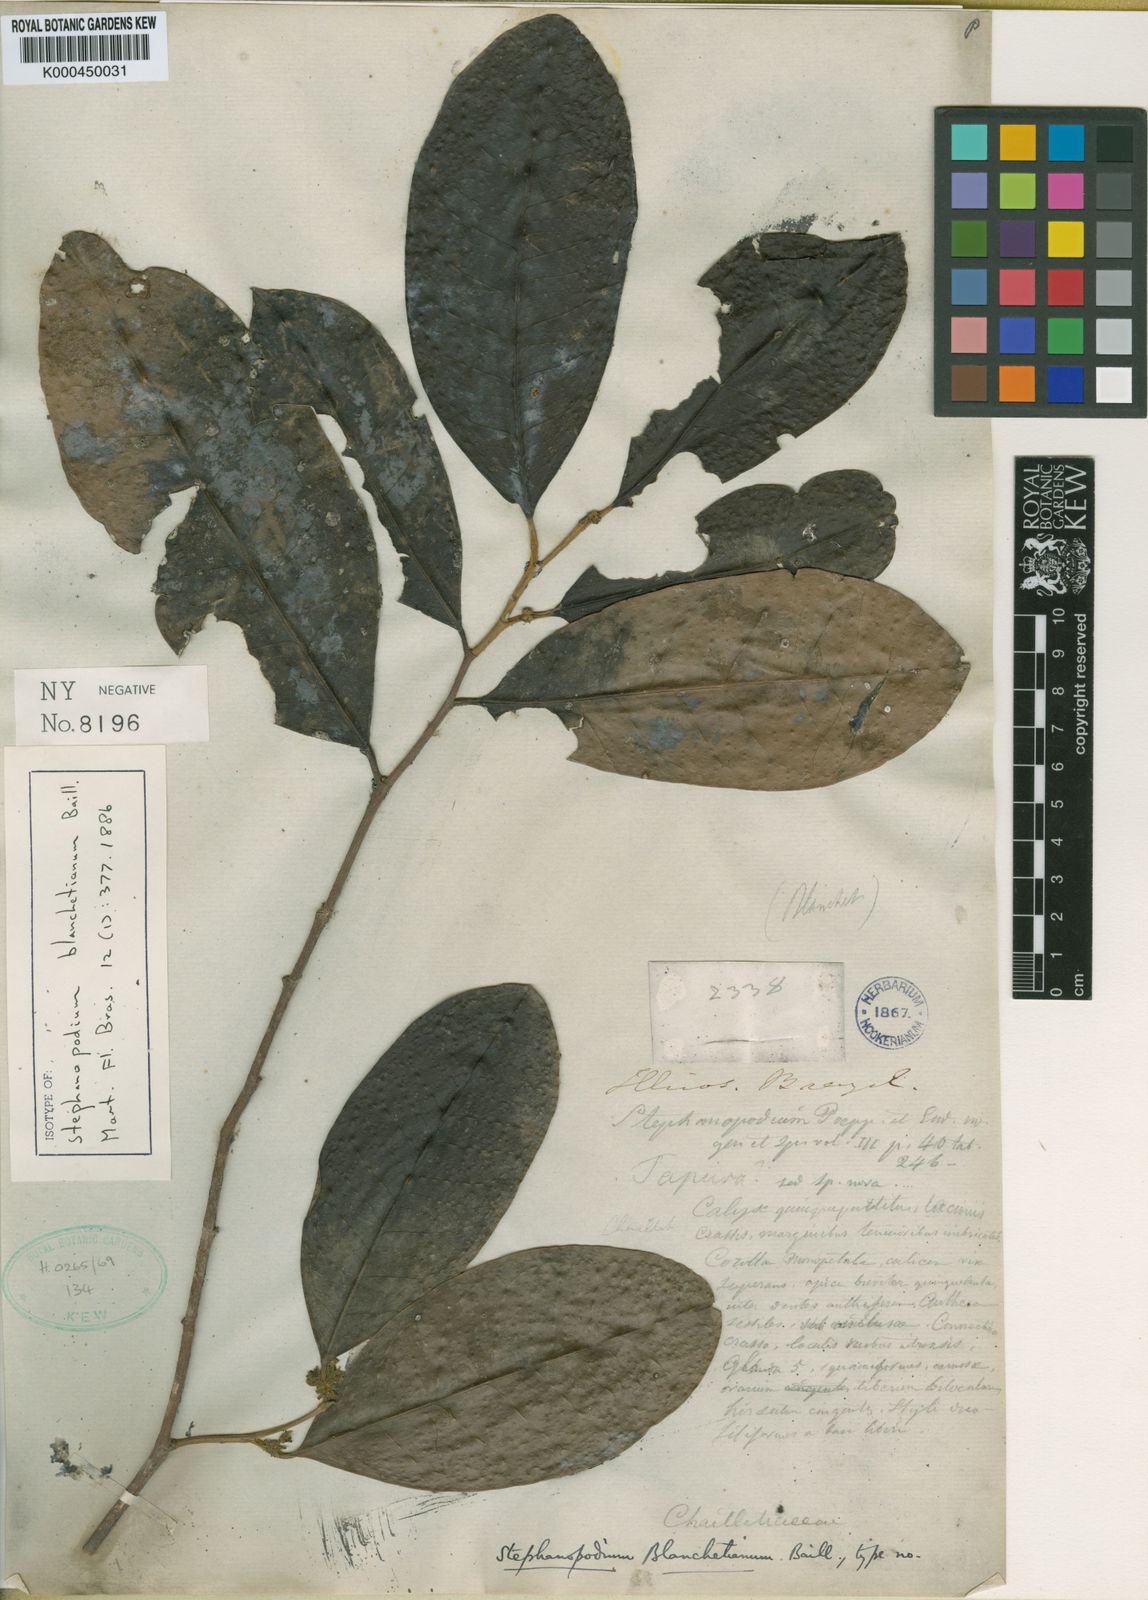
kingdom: Plantae
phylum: Tracheophyta
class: Magnoliopsida
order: Malpighiales
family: Dichapetalaceae
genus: Stephanopodium
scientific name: Stephanopodium blanchetianum
